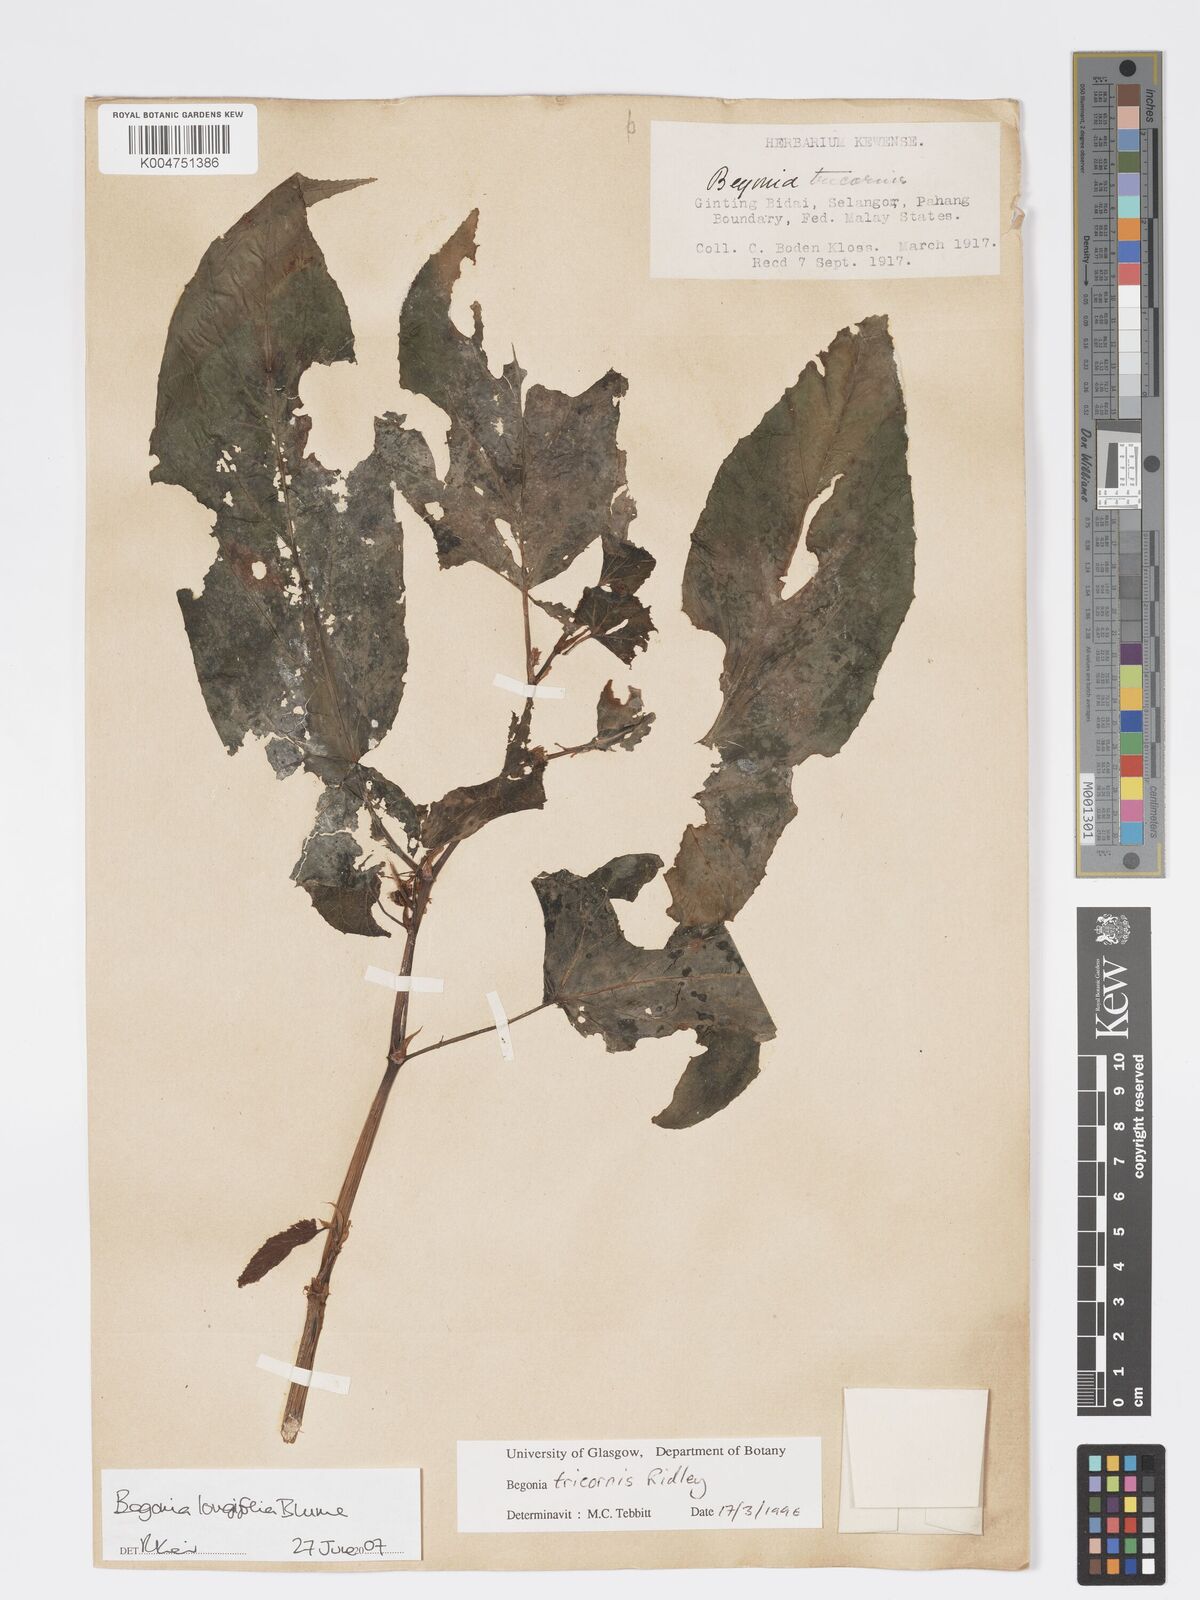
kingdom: Plantae
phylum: Tracheophyta
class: Magnoliopsida
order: Cucurbitales
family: Begoniaceae
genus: Begonia
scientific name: Begonia longifolia
